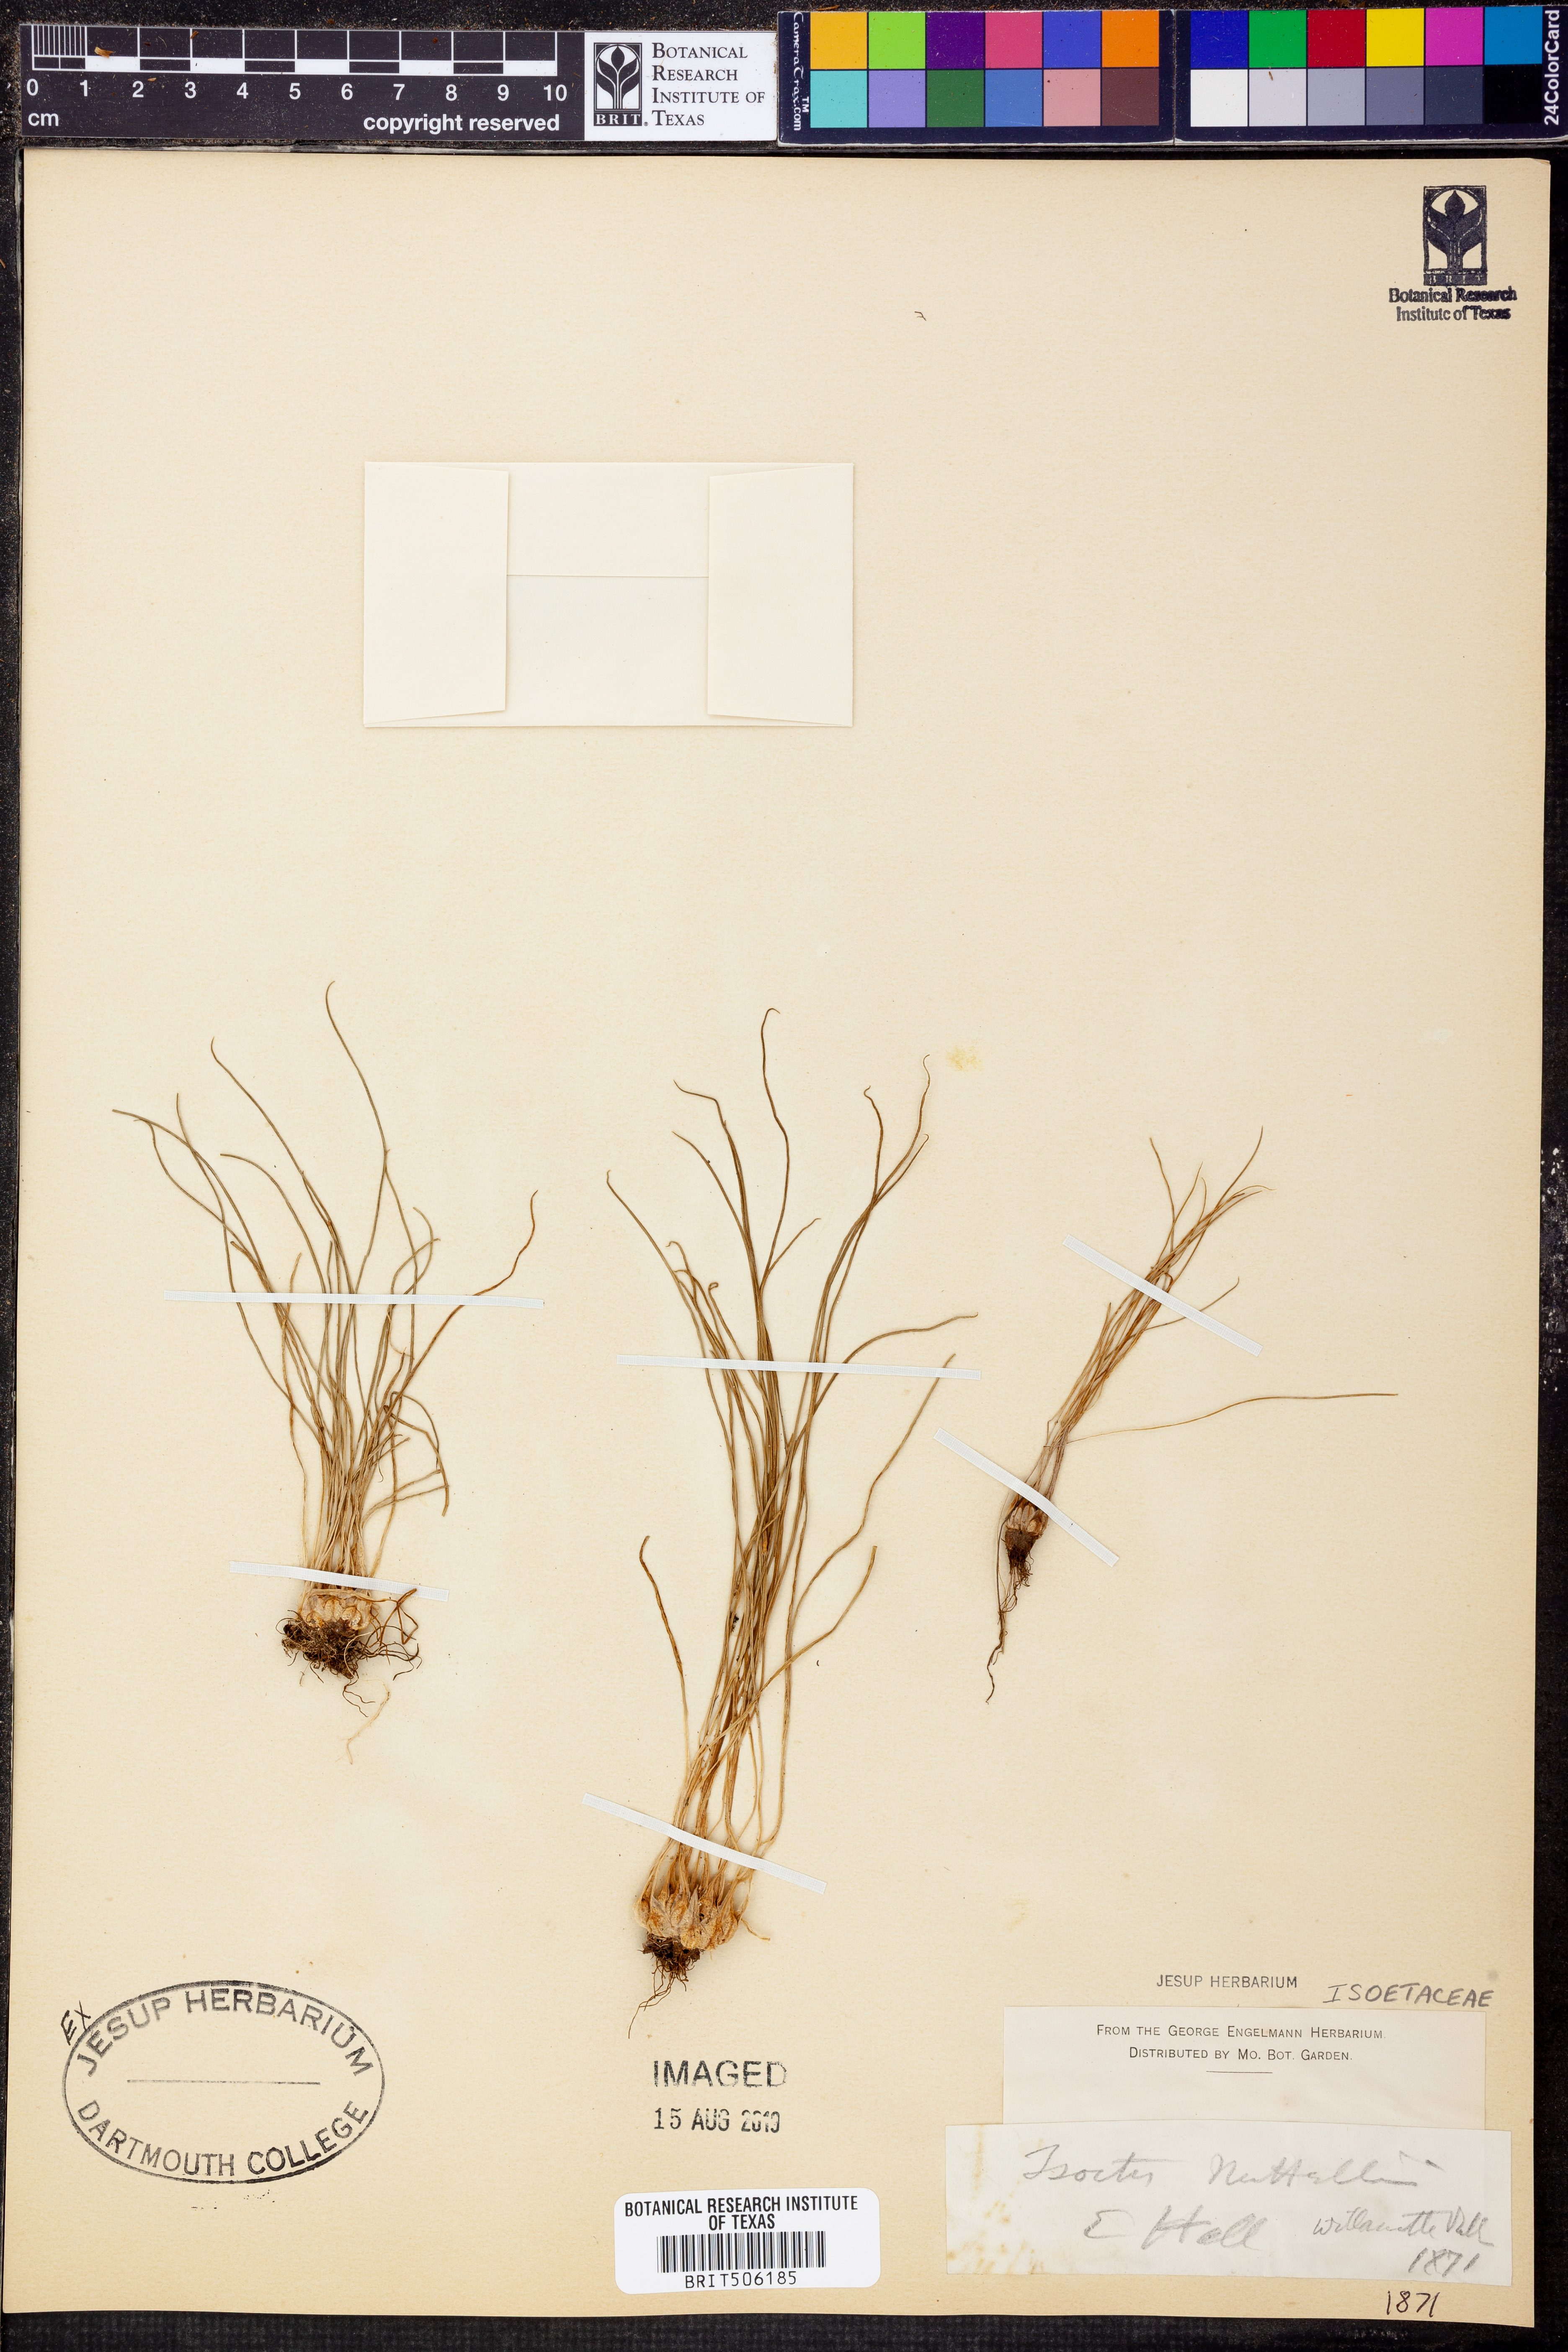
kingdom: Plantae
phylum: Tracheophyta
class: Lycopodiopsida
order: Isoetales
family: Isoetaceae
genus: Isoetes
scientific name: Isoetes nuttallii
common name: Nuttall's quillwort
